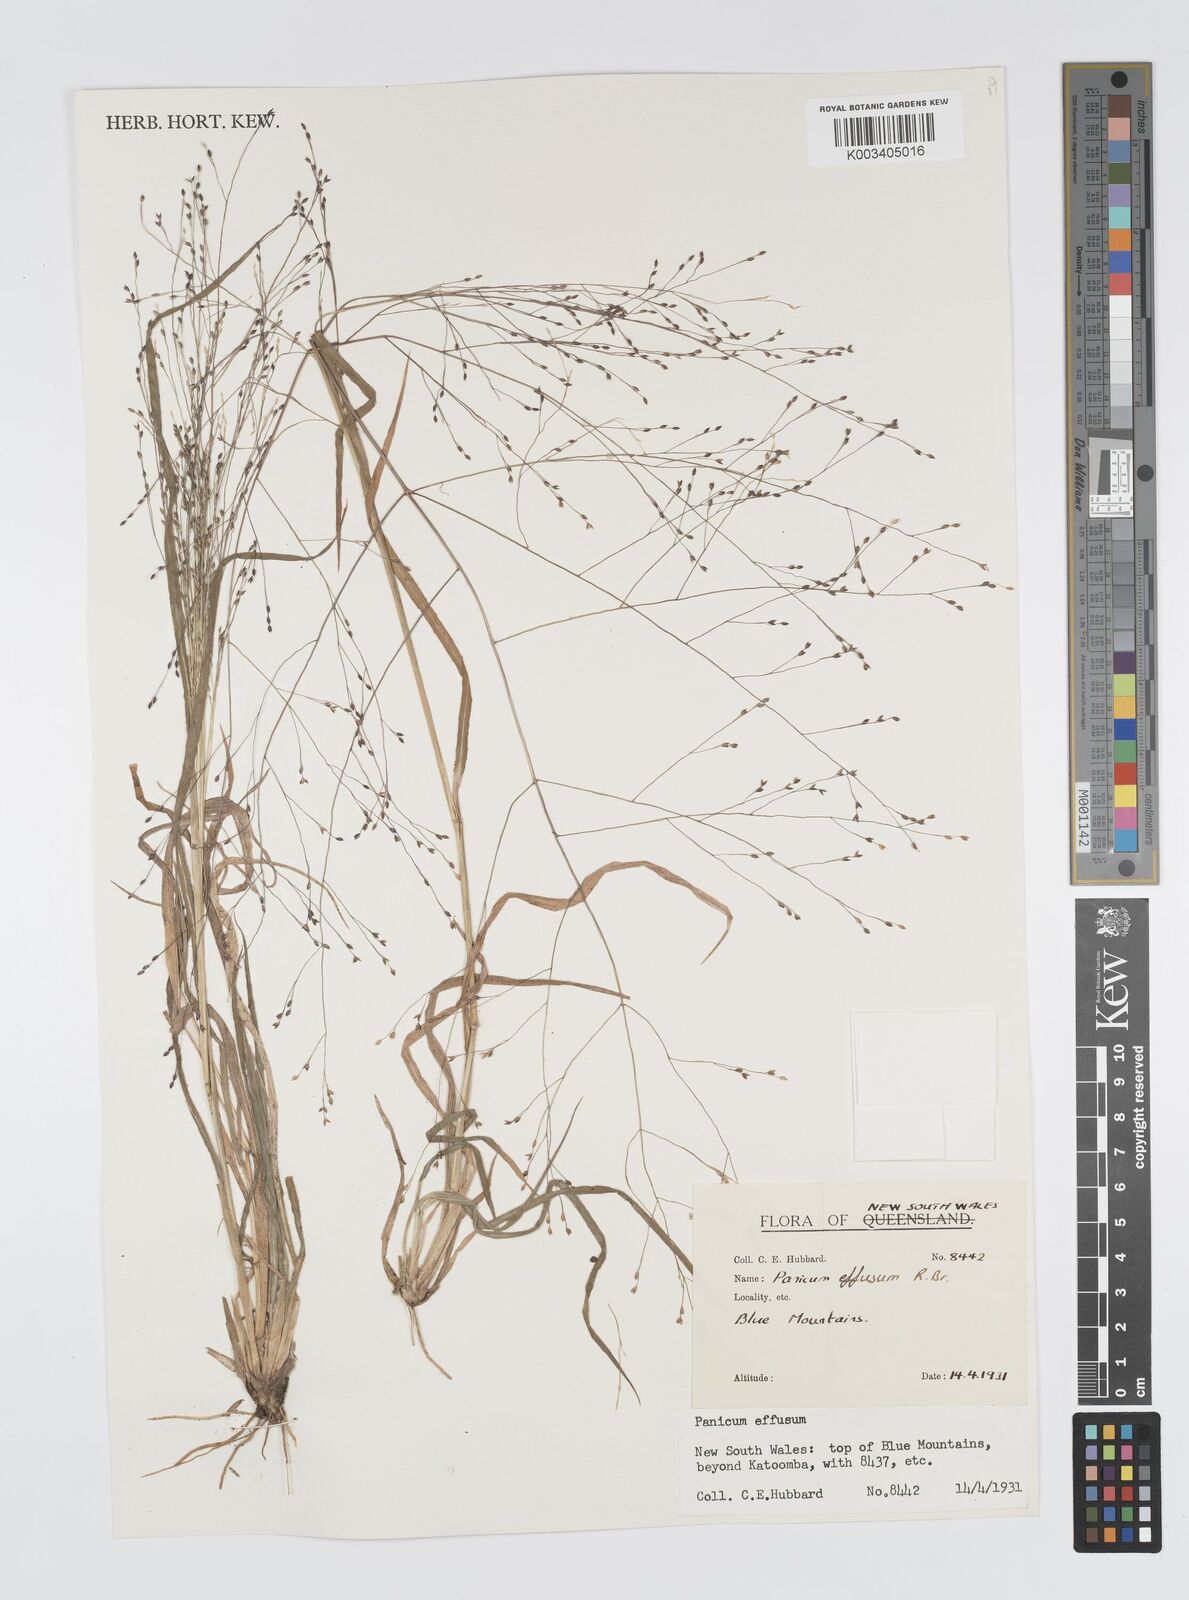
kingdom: Plantae
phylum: Tracheophyta
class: Liliopsida
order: Poales
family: Poaceae
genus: Panicum
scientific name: Panicum effusum
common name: Hairy panic grass
